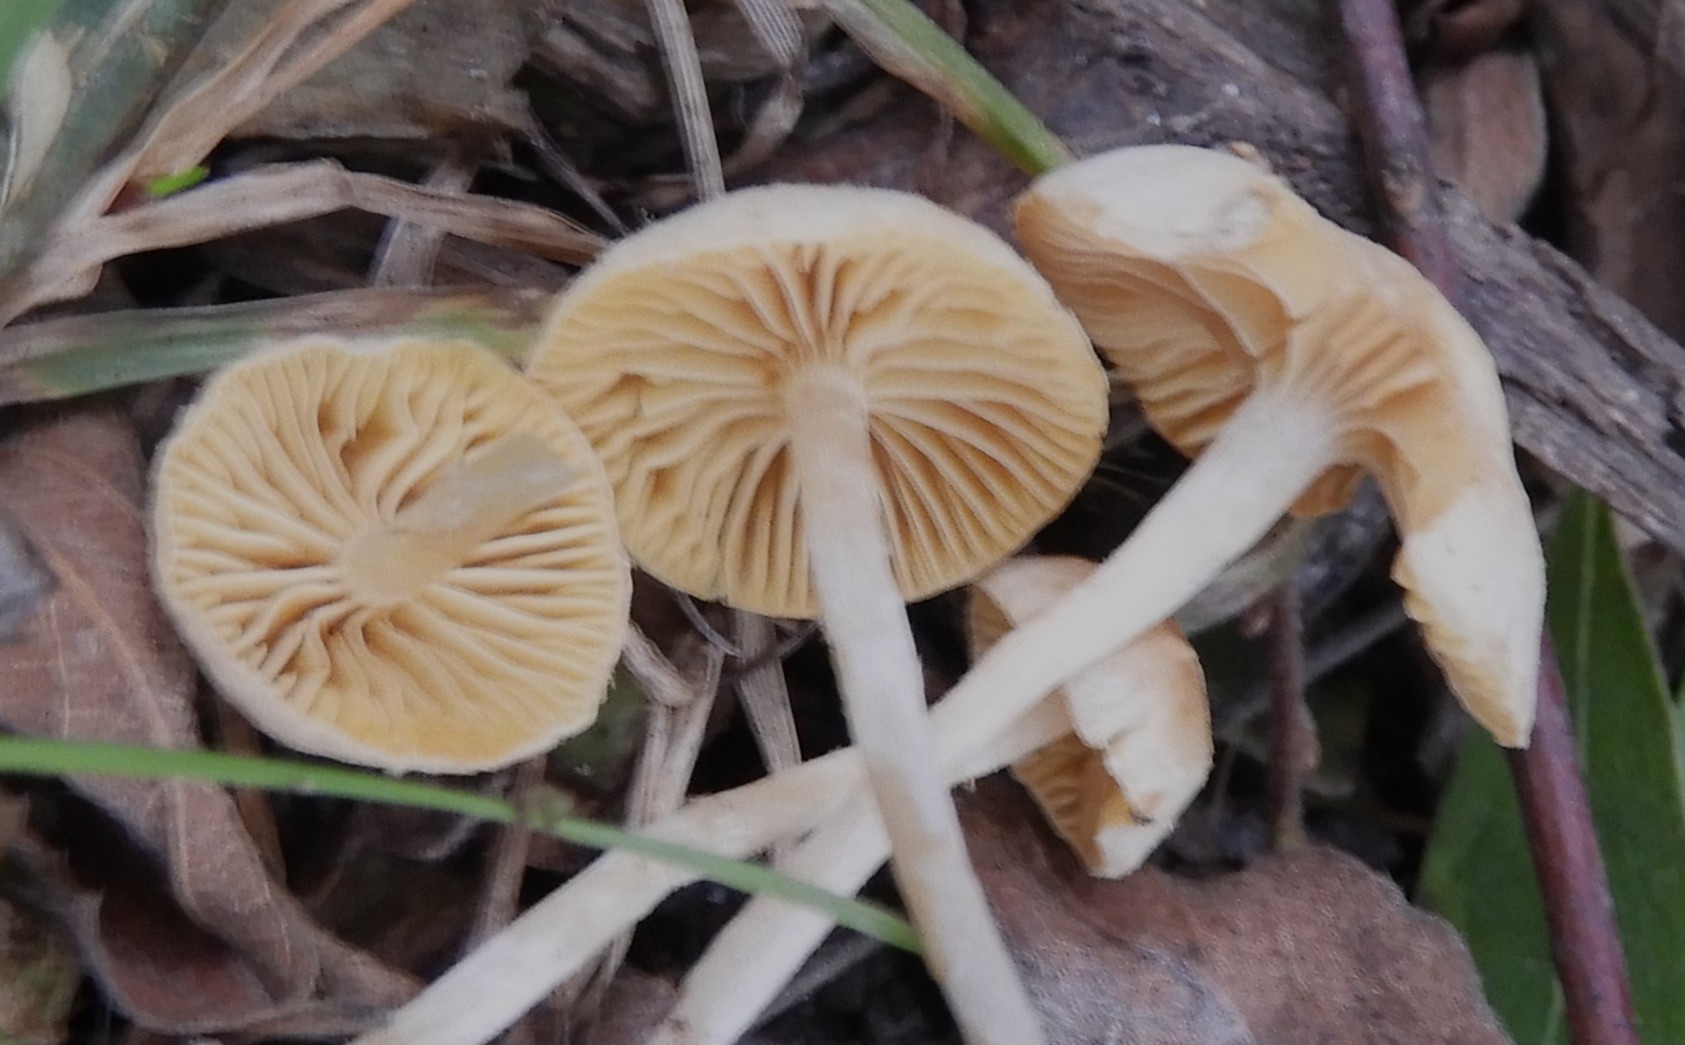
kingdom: Fungi
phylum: Basidiomycota
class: Agaricomycetes
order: Agaricales
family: Tubariaceae
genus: Tubaria
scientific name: Tubaria dispersa
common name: tjørne-fnughat
